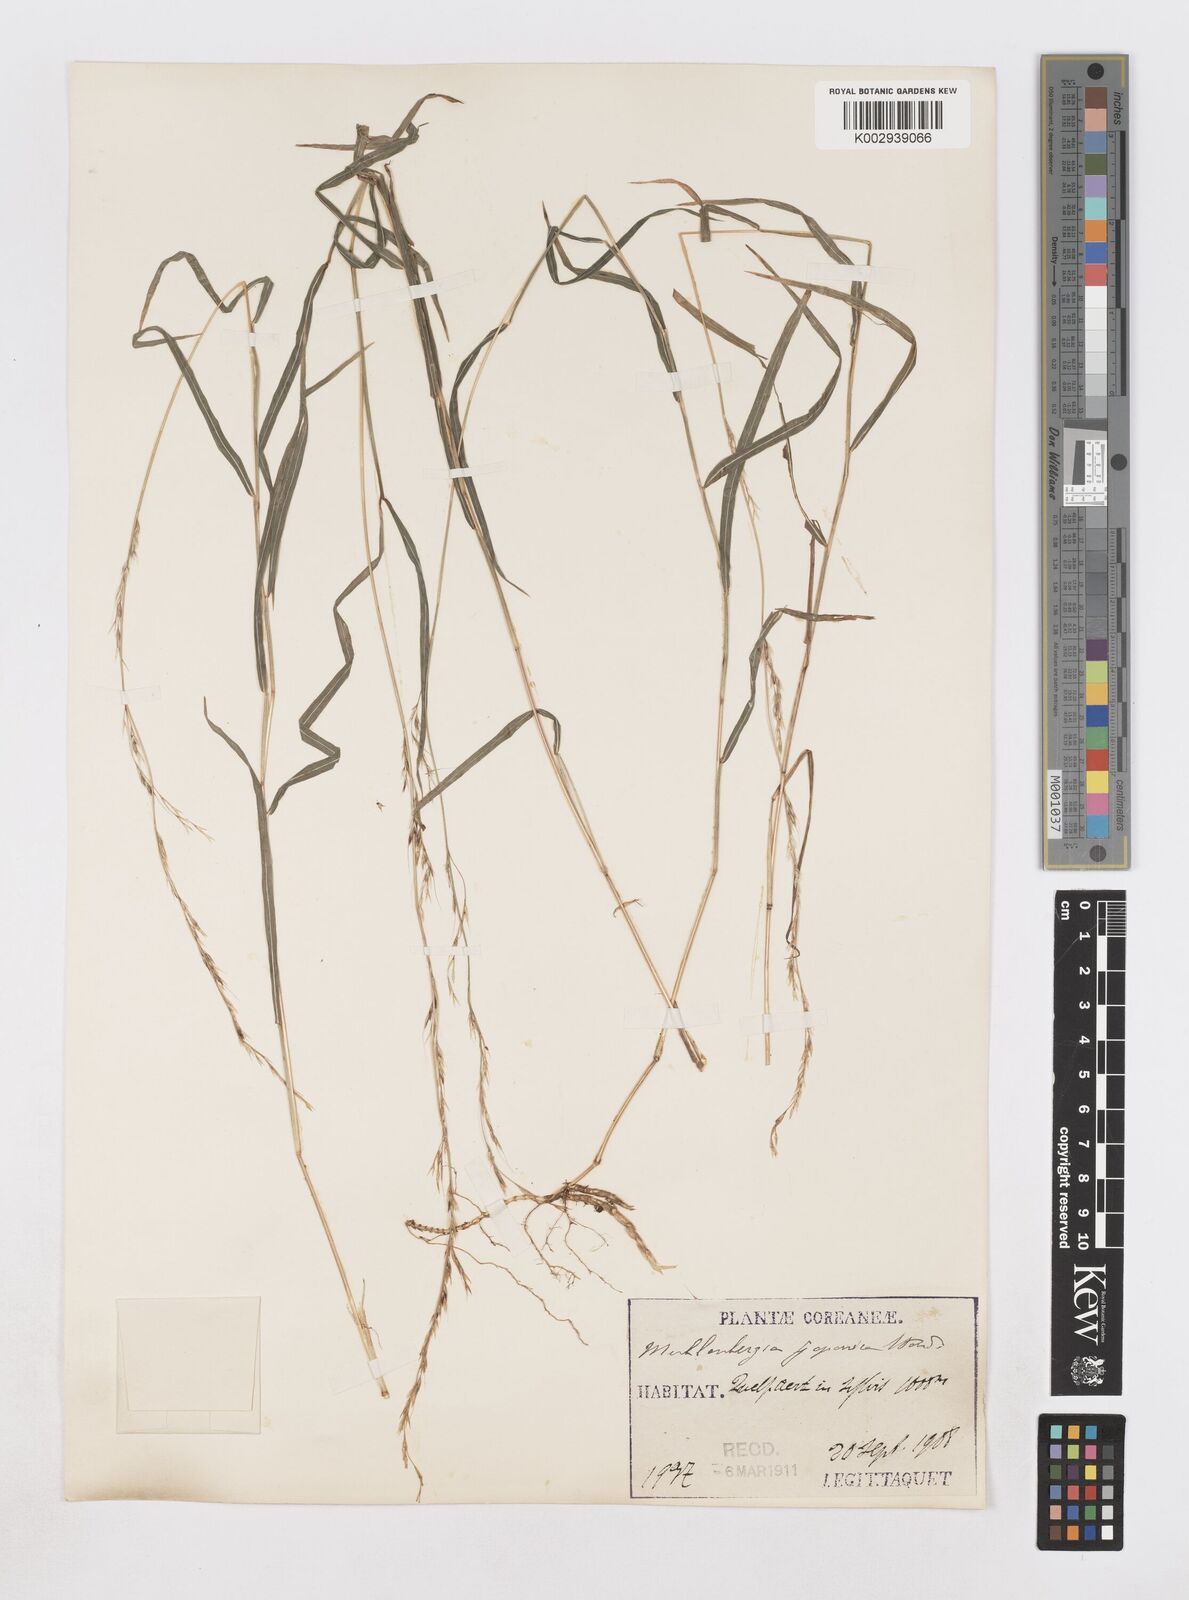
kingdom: Plantae
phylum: Tracheophyta
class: Liliopsida
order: Poales
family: Poaceae
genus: Muhlenbergia
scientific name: Muhlenbergia hakonensis
